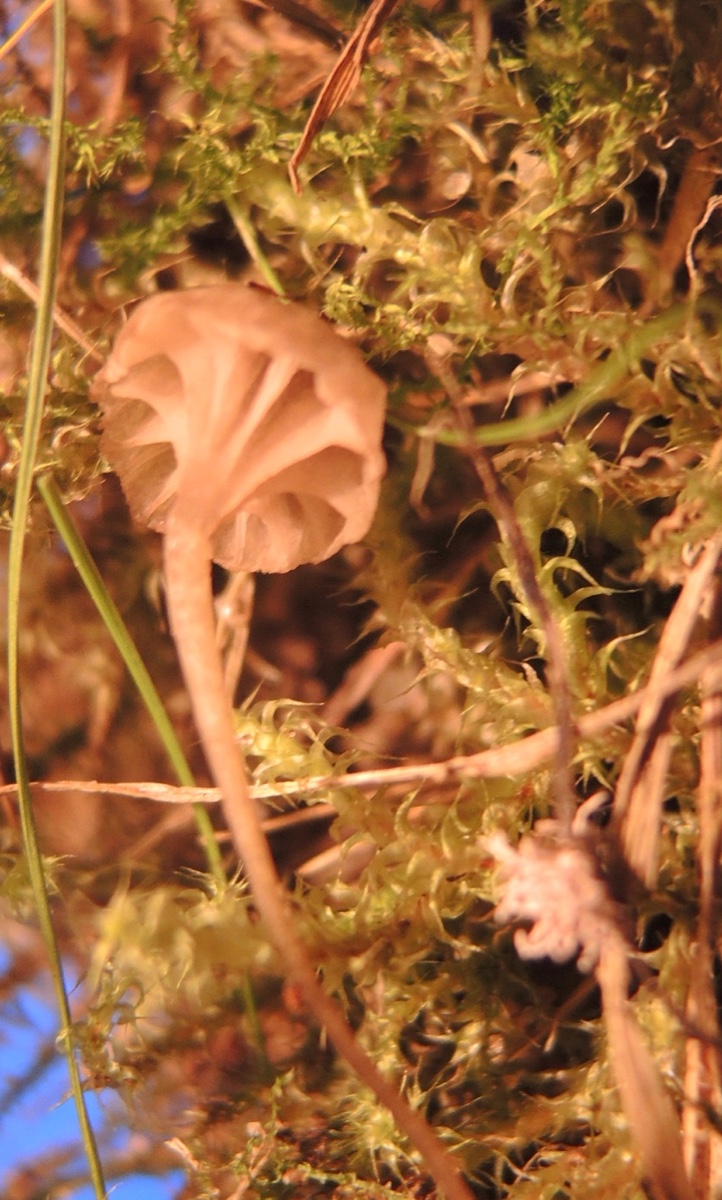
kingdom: Fungi
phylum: Basidiomycota
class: Agaricomycetes
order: Agaricales
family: Entolomataceae
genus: Entoloma
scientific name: Entoloma rhodocylix
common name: fjernbladet rødblad
